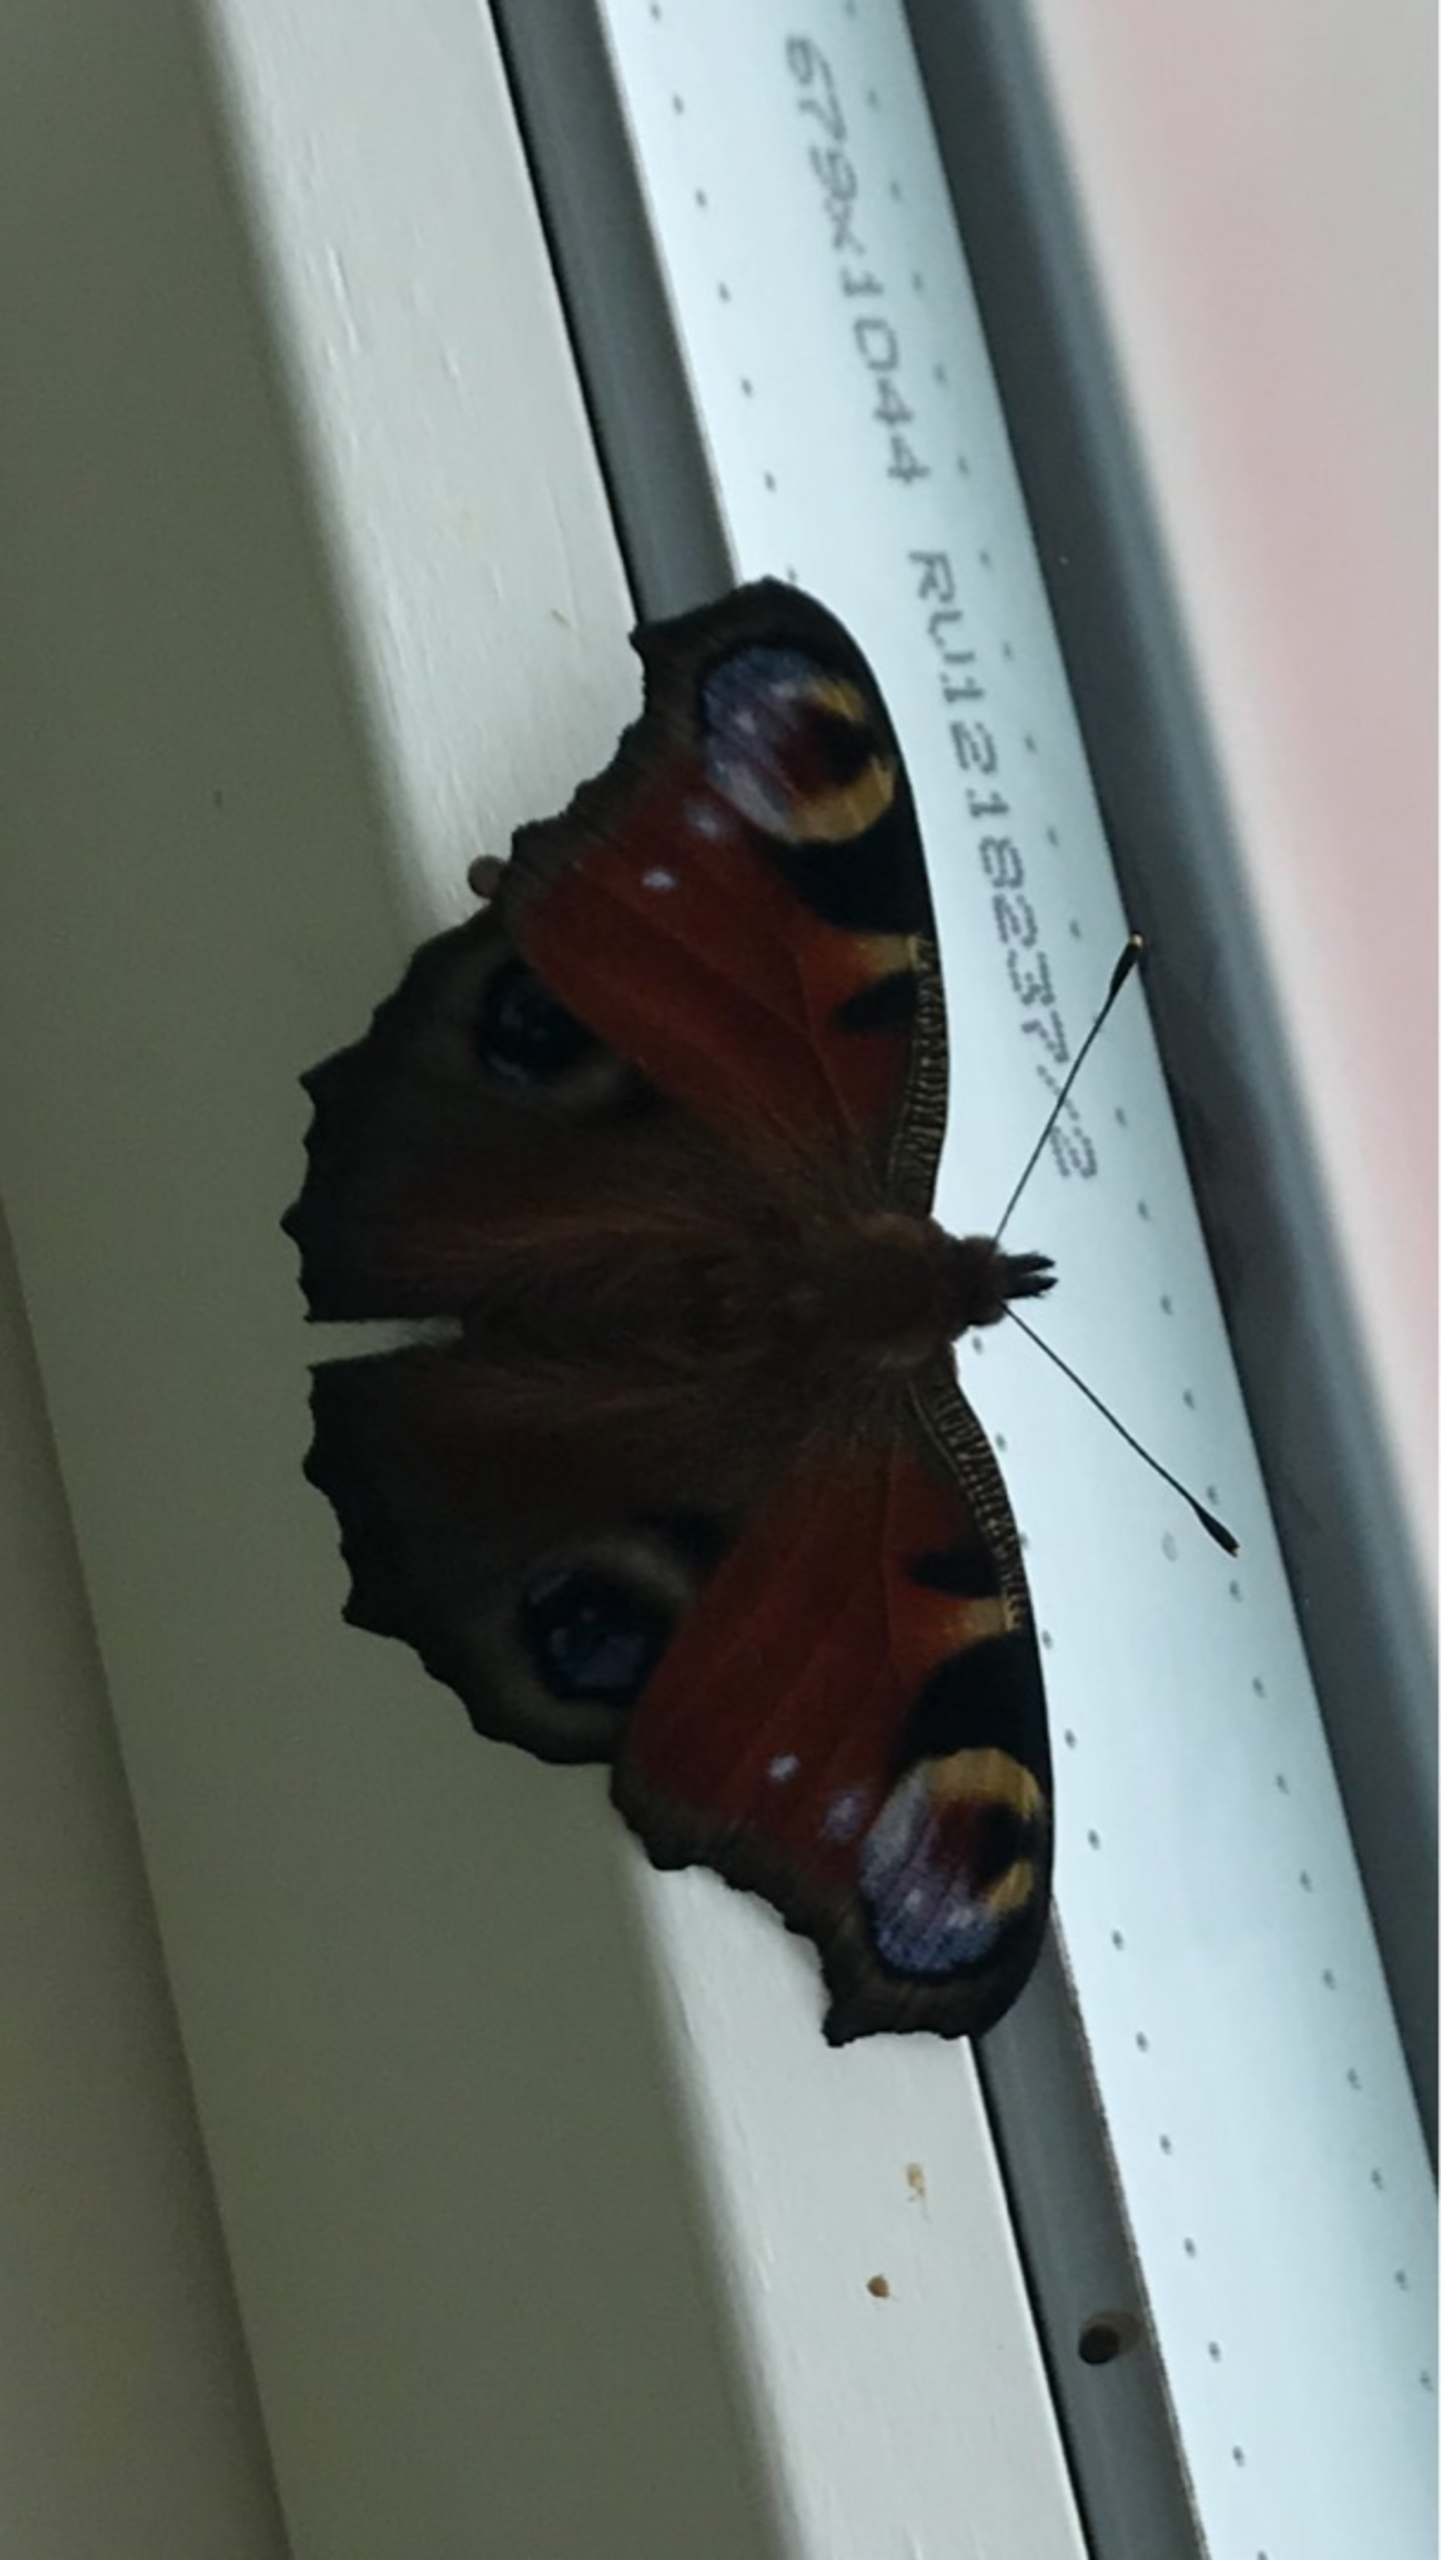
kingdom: Animalia
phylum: Arthropoda
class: Insecta
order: Lepidoptera
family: Nymphalidae
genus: Aglais
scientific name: Aglais io
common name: Dagpåfugleøje
